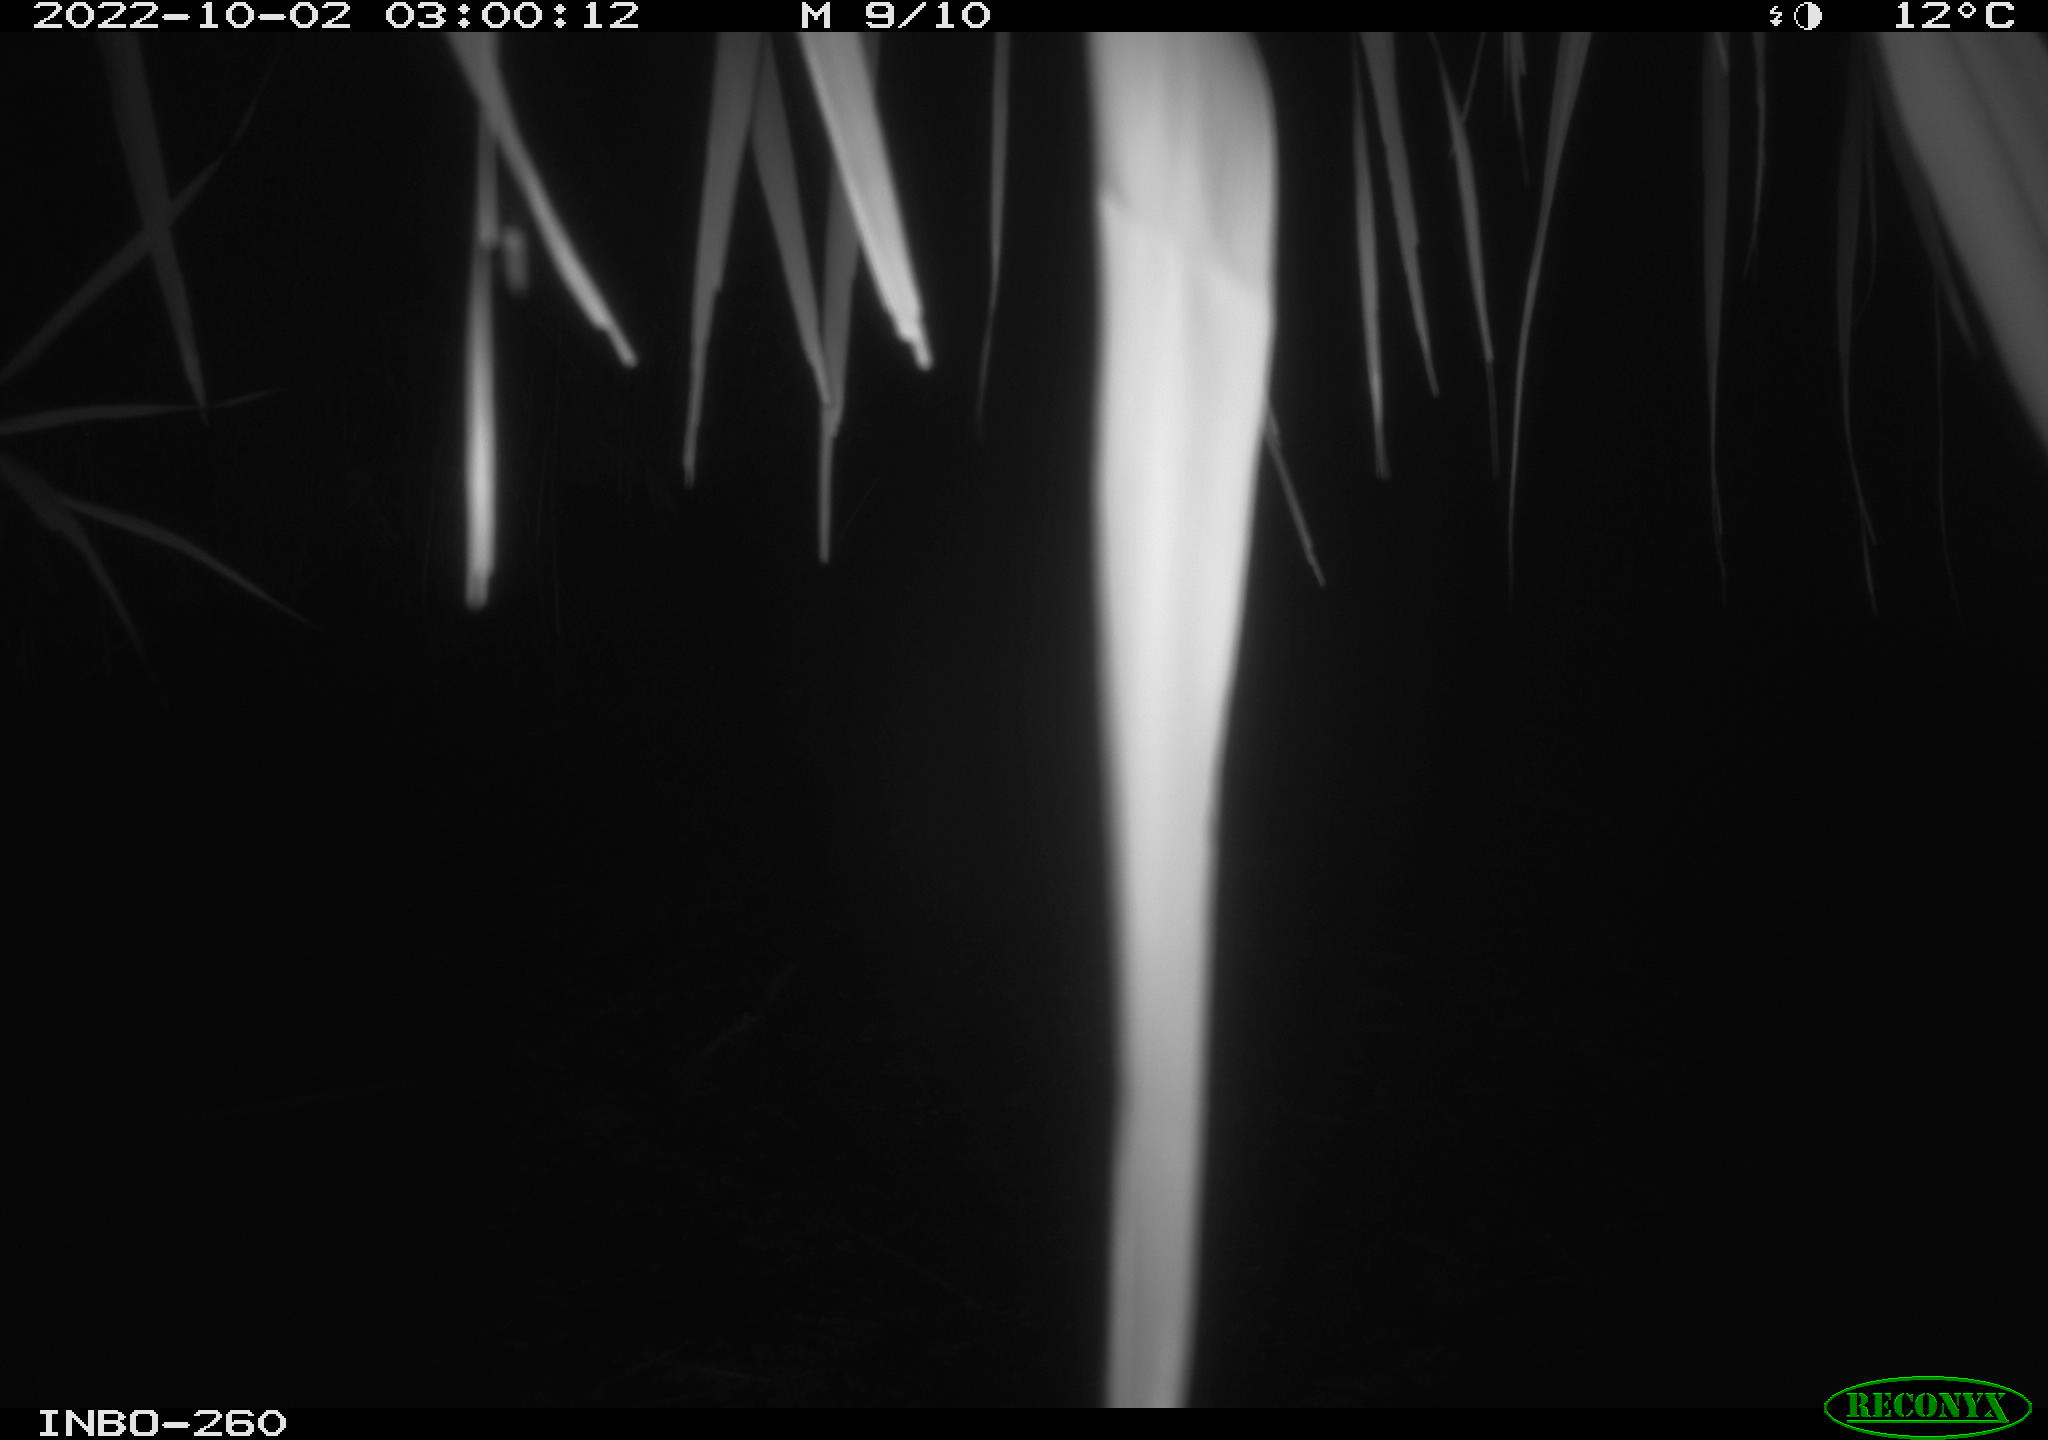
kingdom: Animalia
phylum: Chordata
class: Mammalia
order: Rodentia
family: Muridae
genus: Rattus
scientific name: Rattus norvegicus
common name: Brown rat
